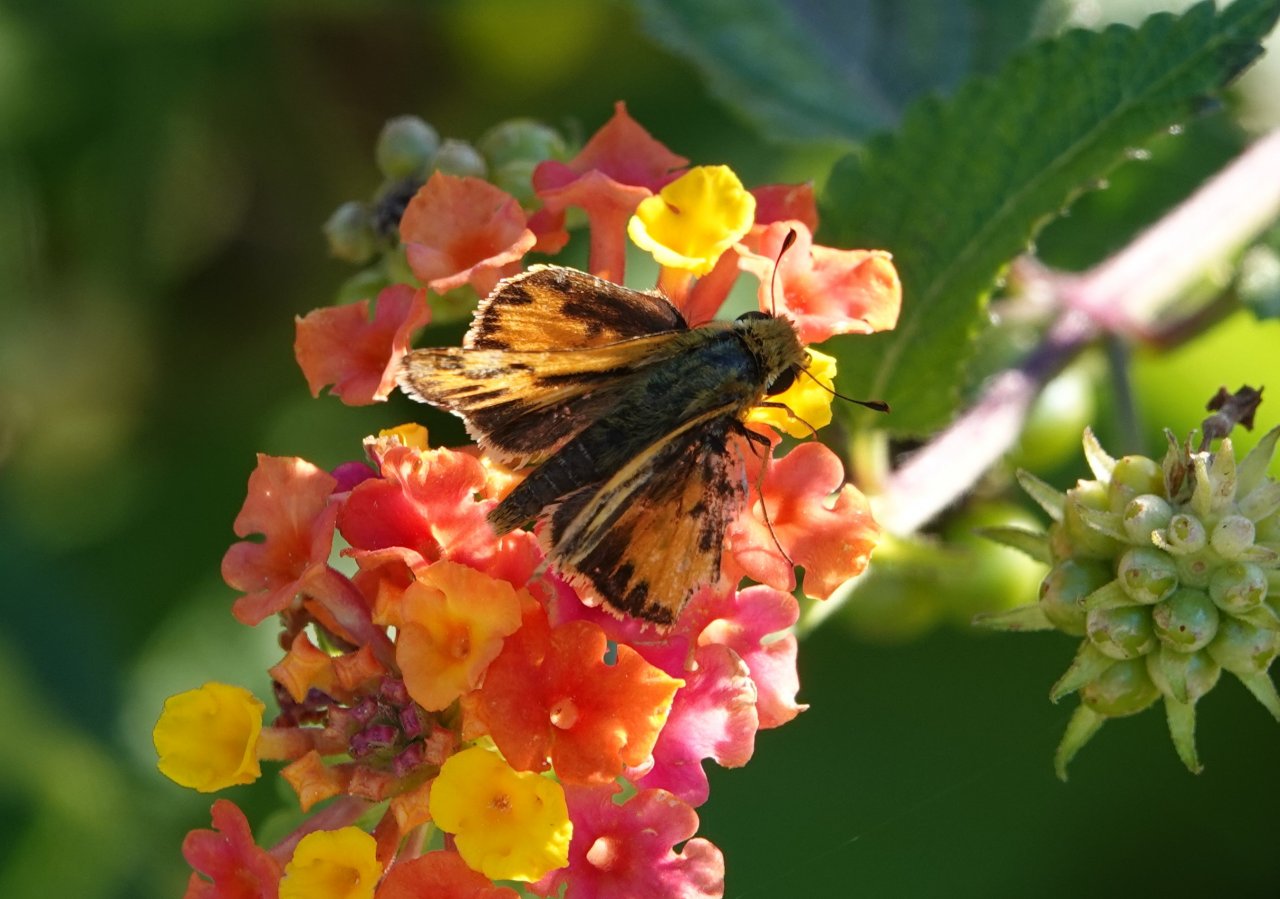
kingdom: Animalia
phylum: Arthropoda
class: Insecta
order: Lepidoptera
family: Hesperiidae
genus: Hylephila
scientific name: Hylephila phyleus
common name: Fiery Skipper
